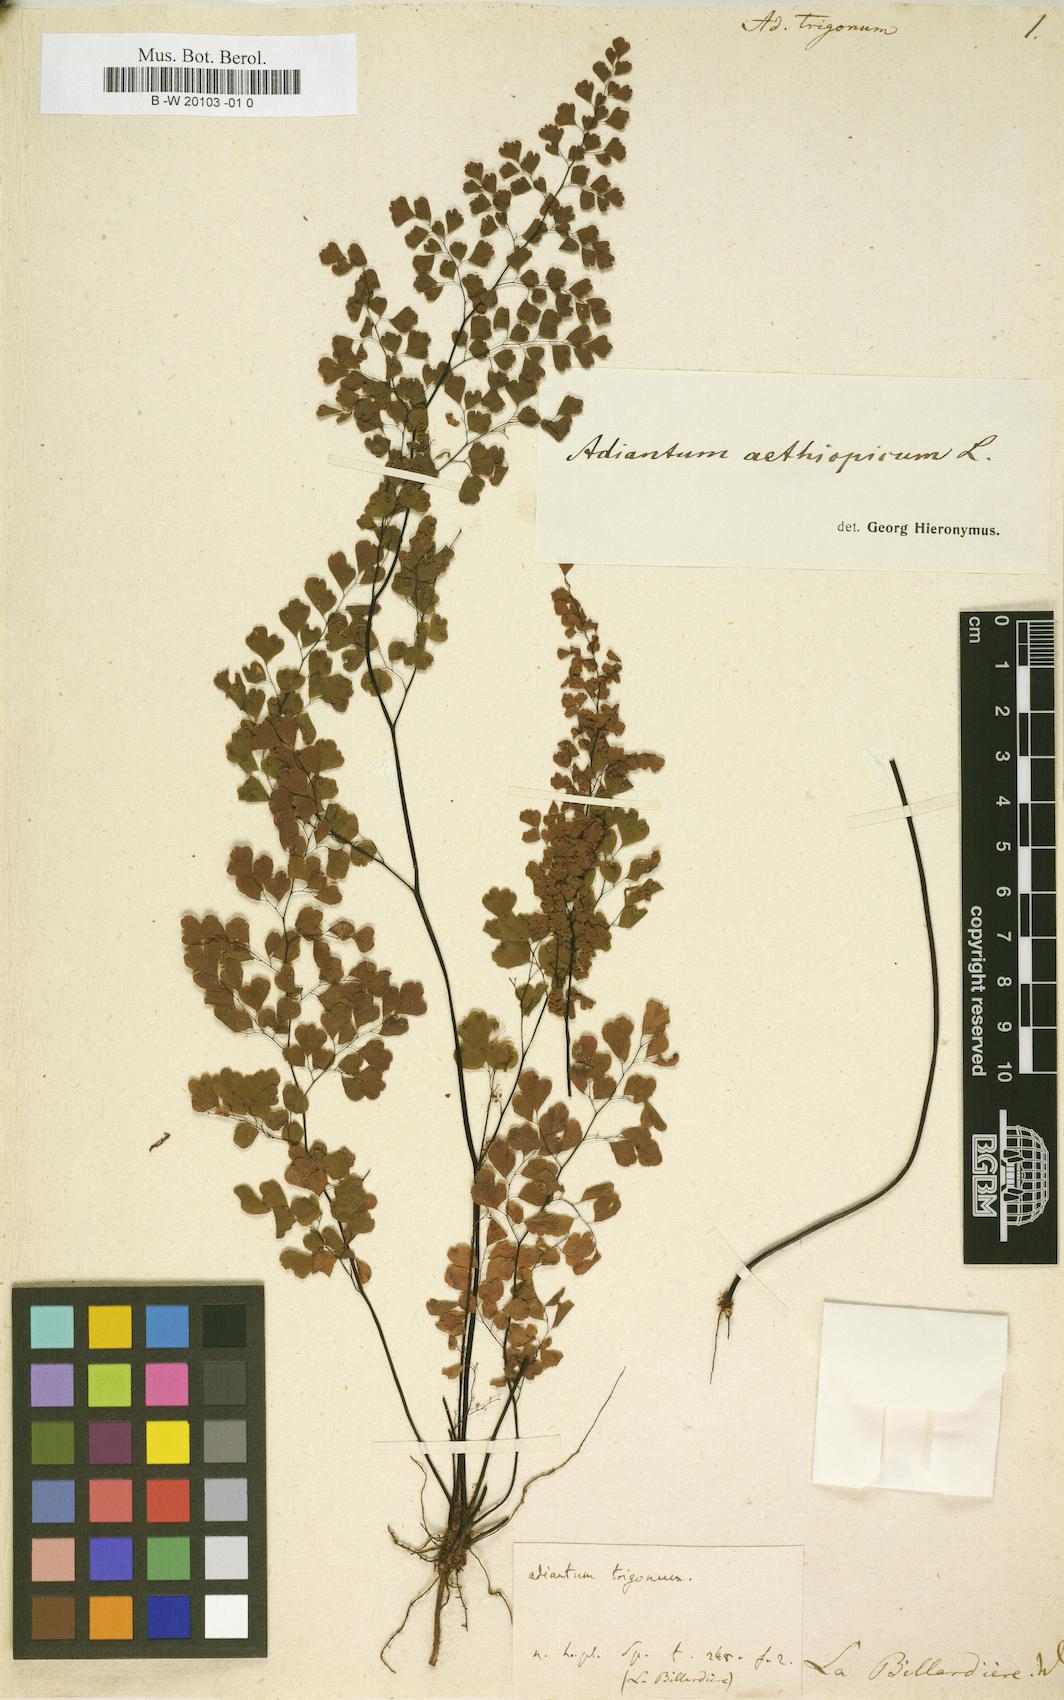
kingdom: Plantae
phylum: Tracheophyta
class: Polypodiopsida
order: Polypodiales
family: Pteridaceae
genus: Adiantum
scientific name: Adiantum aethiopicum
